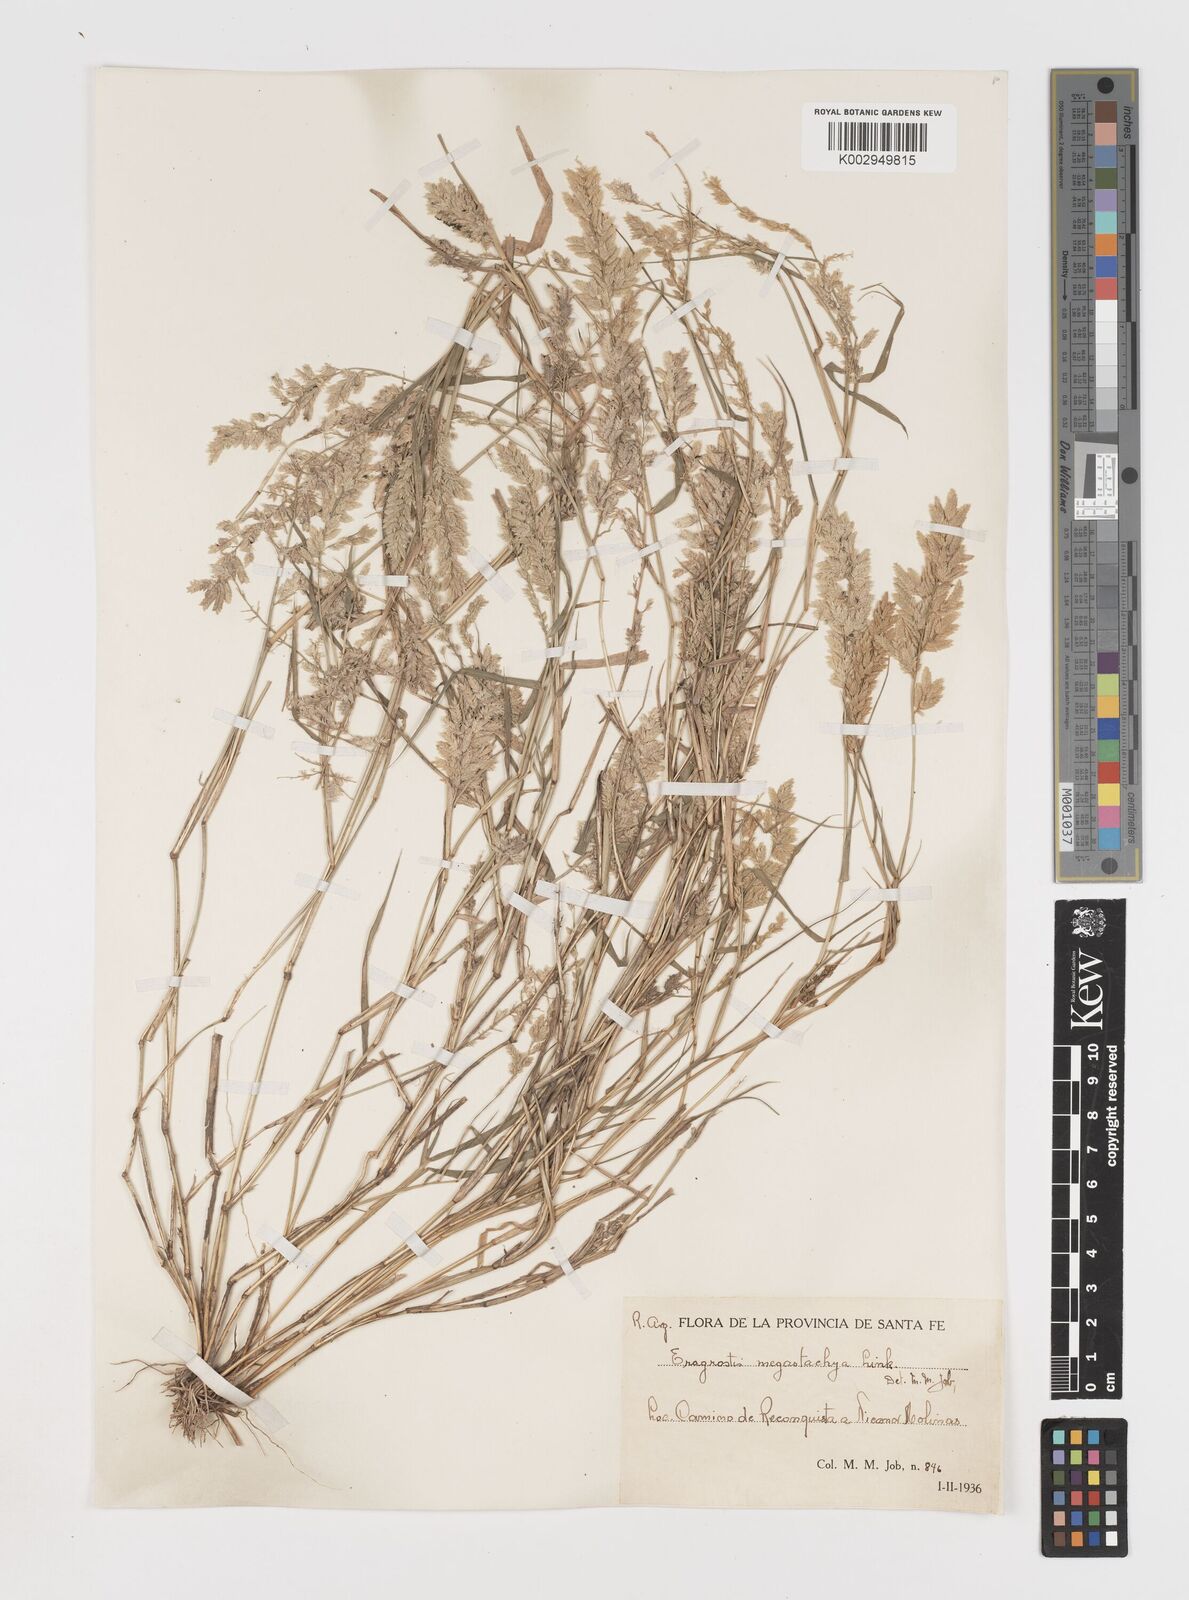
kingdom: Plantae
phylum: Tracheophyta
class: Liliopsida
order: Poales
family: Poaceae
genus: Eragrostis
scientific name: Eragrostis cilianensis
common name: Stinkgrass
